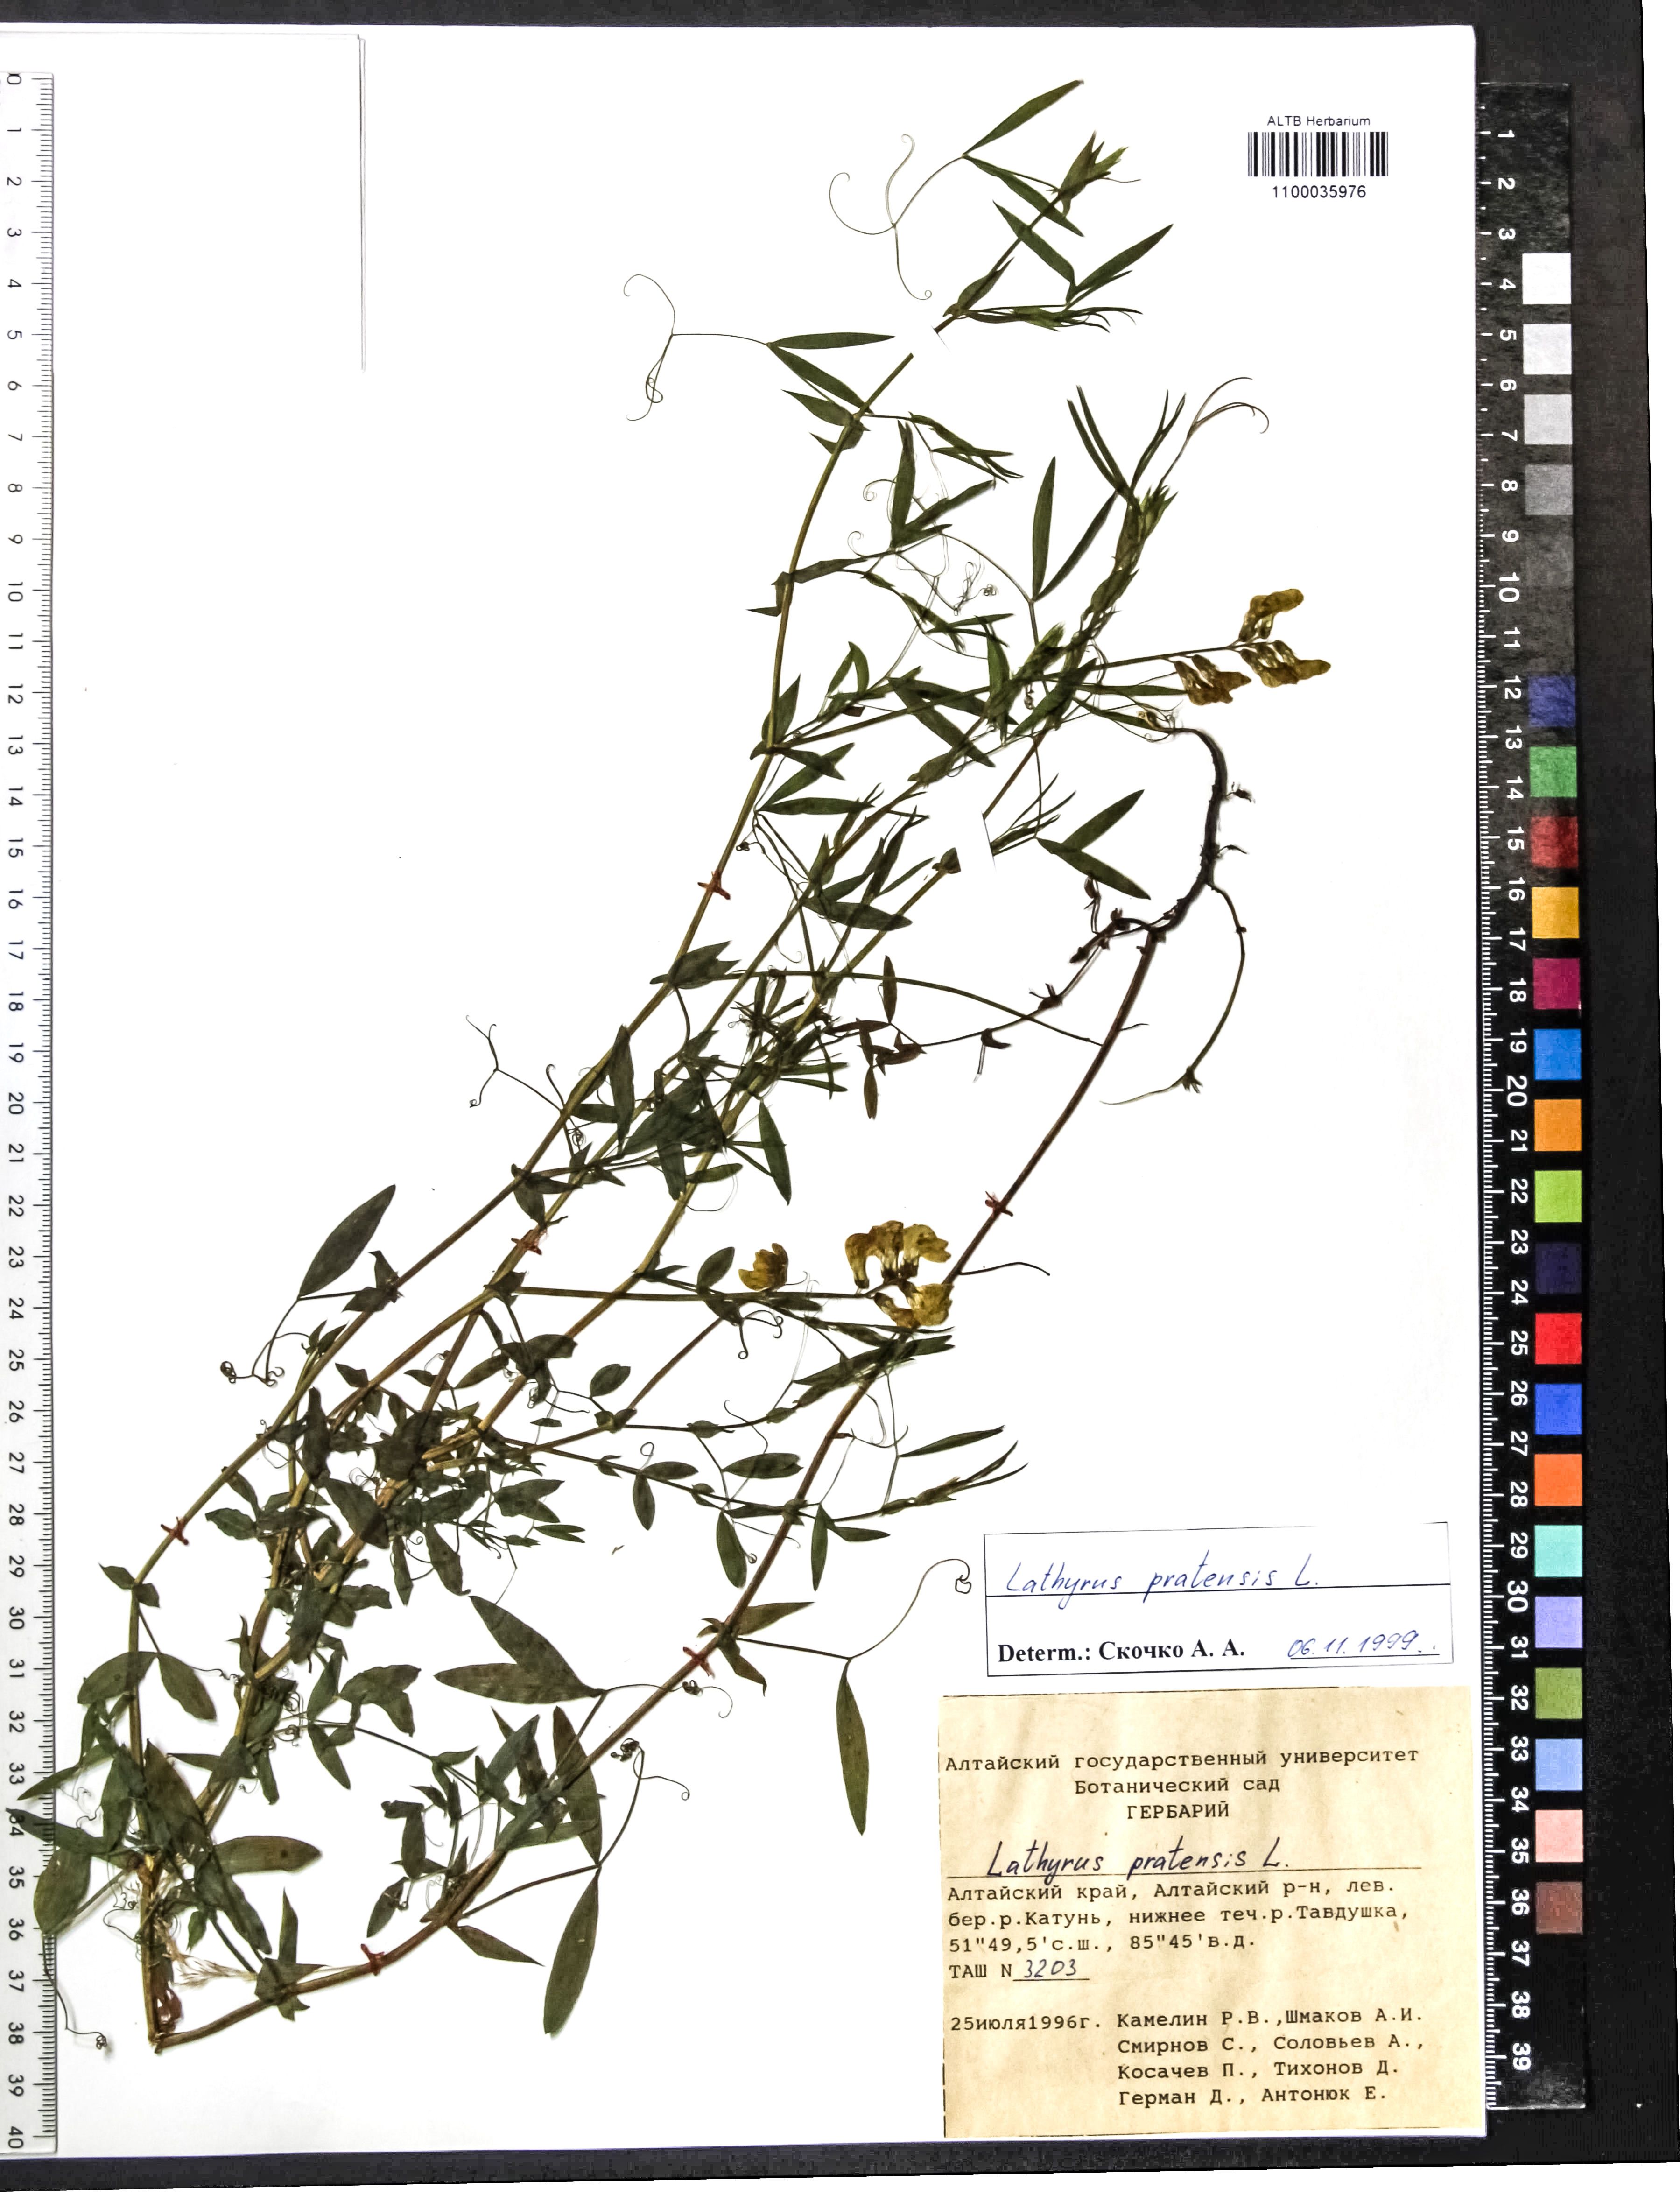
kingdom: Plantae
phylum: Tracheophyta
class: Magnoliopsida
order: Fabales
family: Fabaceae
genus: Lathyrus
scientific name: Lathyrus pratensis
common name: Meadow vetchling
